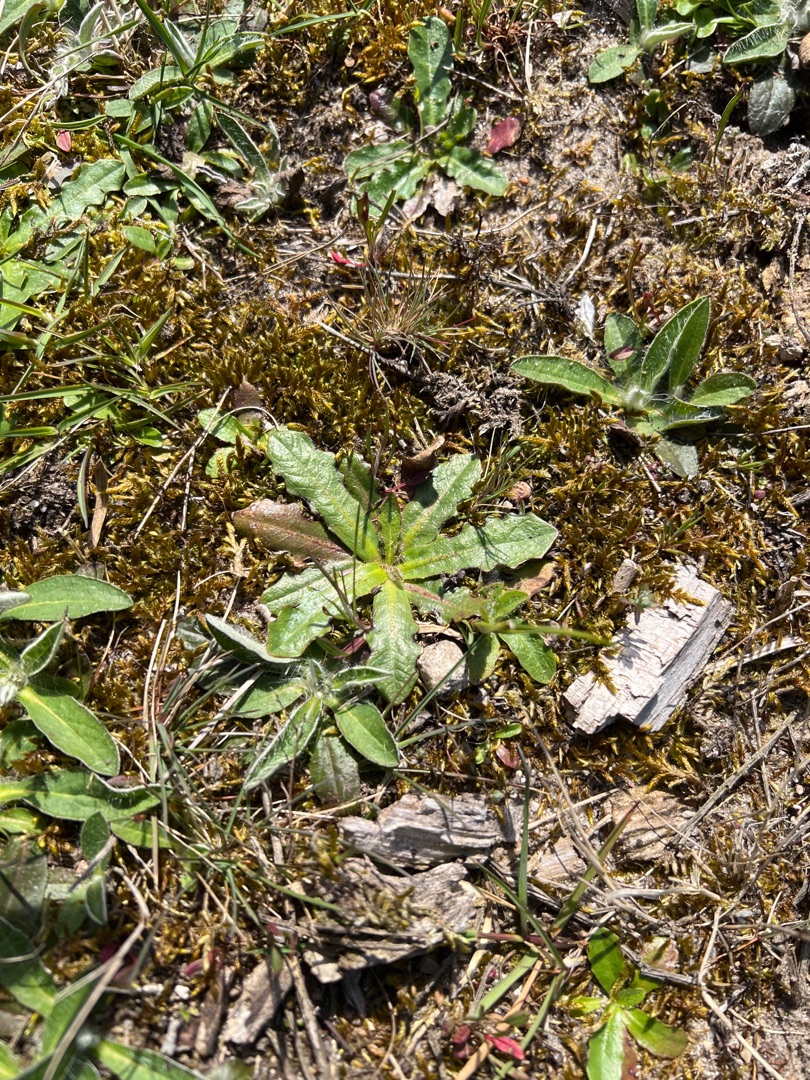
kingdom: Plantae
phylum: Tracheophyta
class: Magnoliopsida
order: Asterales
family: Asteraceae
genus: Hypochaeris
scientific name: Hypochaeris radicata
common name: Almindelig kongepen
